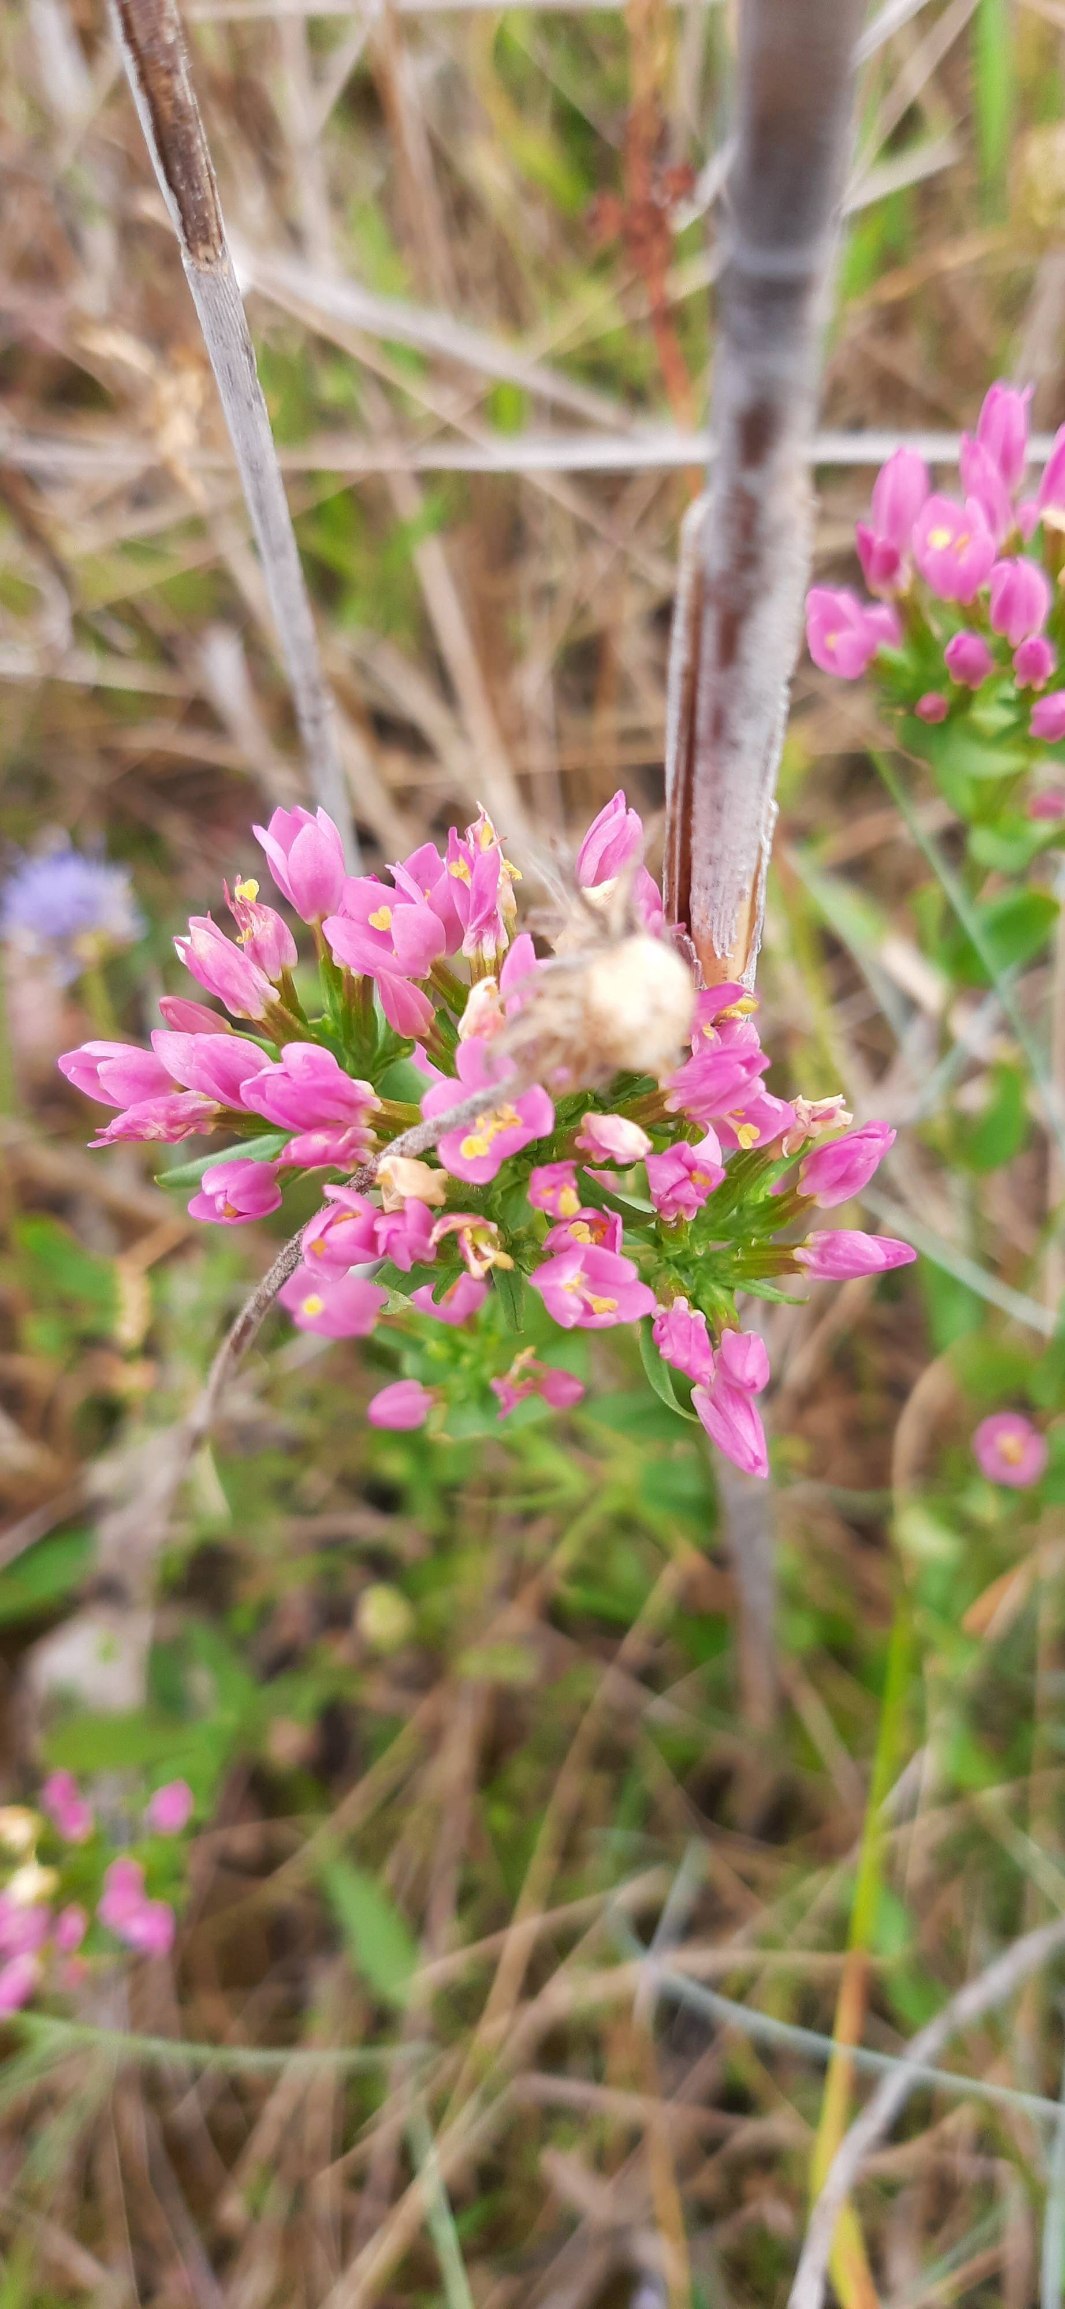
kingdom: Plantae
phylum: Tracheophyta
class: Magnoliopsida
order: Gentianales
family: Gentianaceae
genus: Centaurium
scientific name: Centaurium erythraea
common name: Mark-tusindgylden
